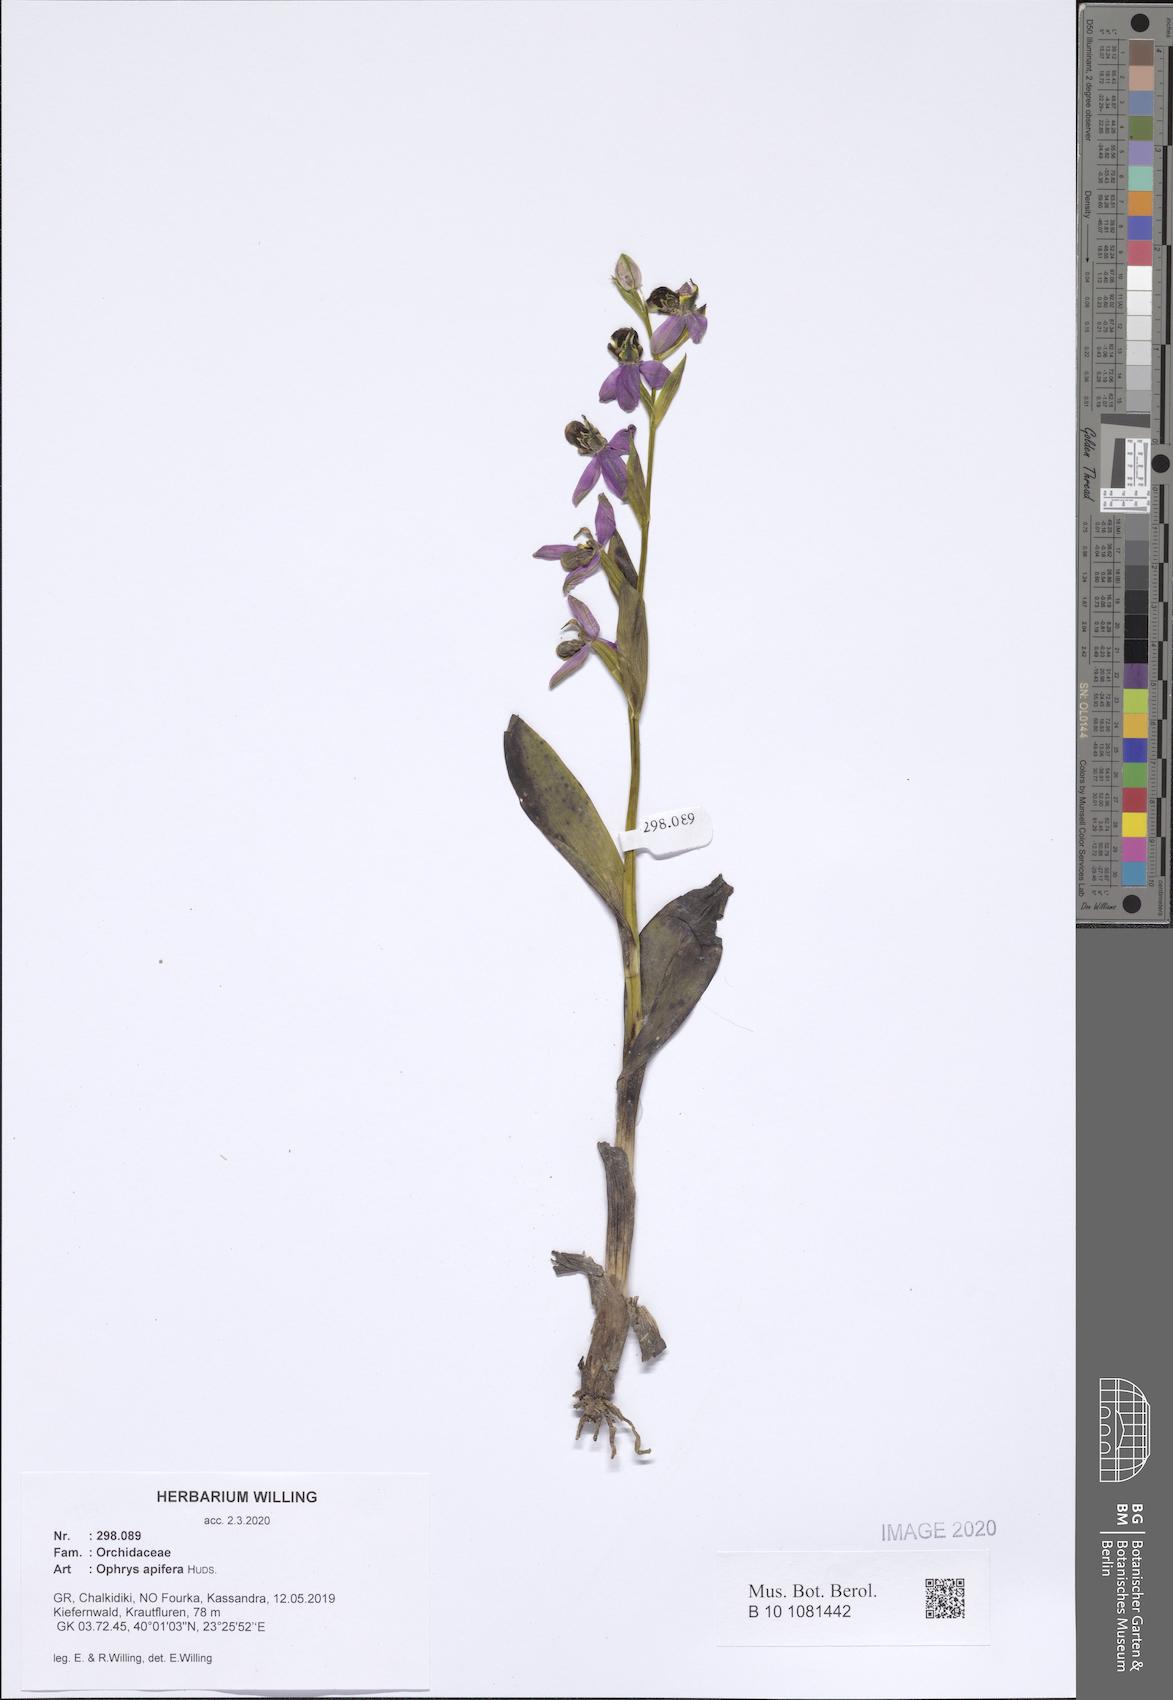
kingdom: Plantae
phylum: Tracheophyta
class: Liliopsida
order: Asparagales
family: Orchidaceae
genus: Ophrys
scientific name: Ophrys apifera
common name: Bee orchid
